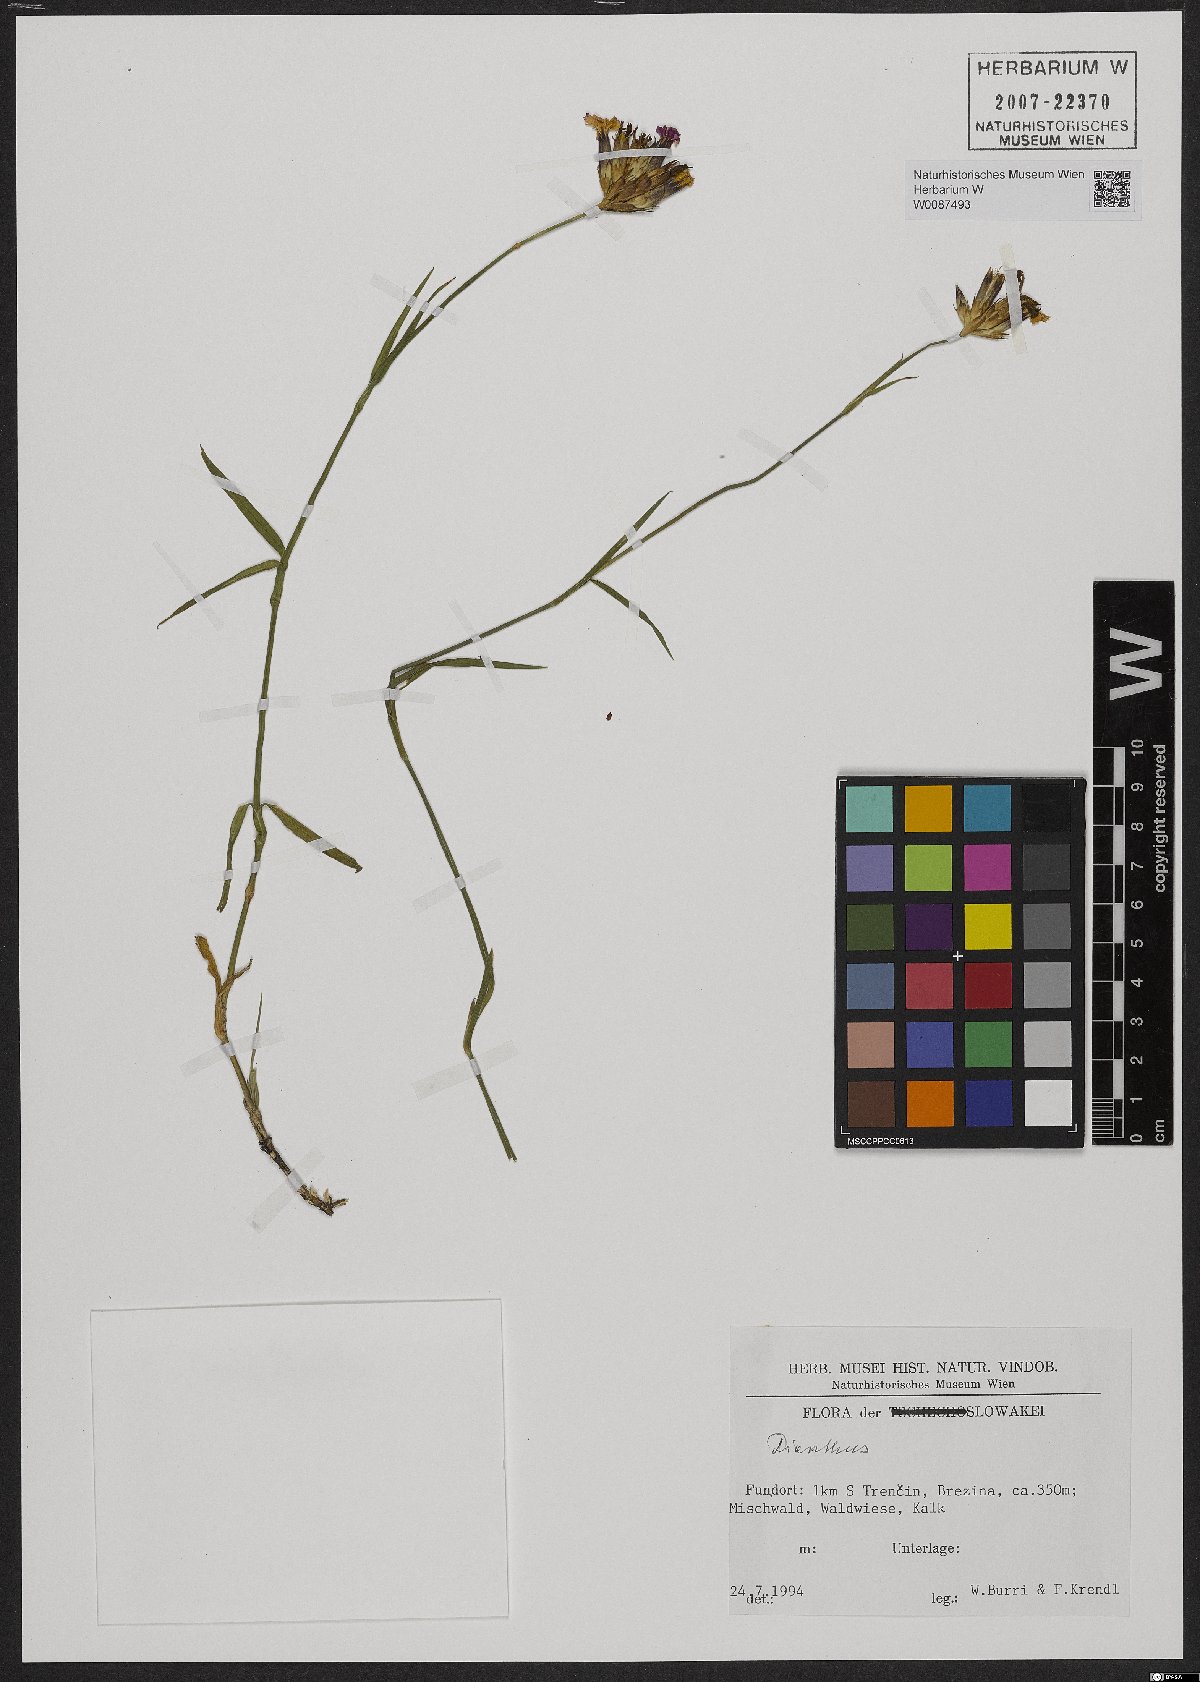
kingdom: Plantae
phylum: Tracheophyta
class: Magnoliopsida
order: Caryophyllales
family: Caryophyllaceae
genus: Dianthus
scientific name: Dianthus
